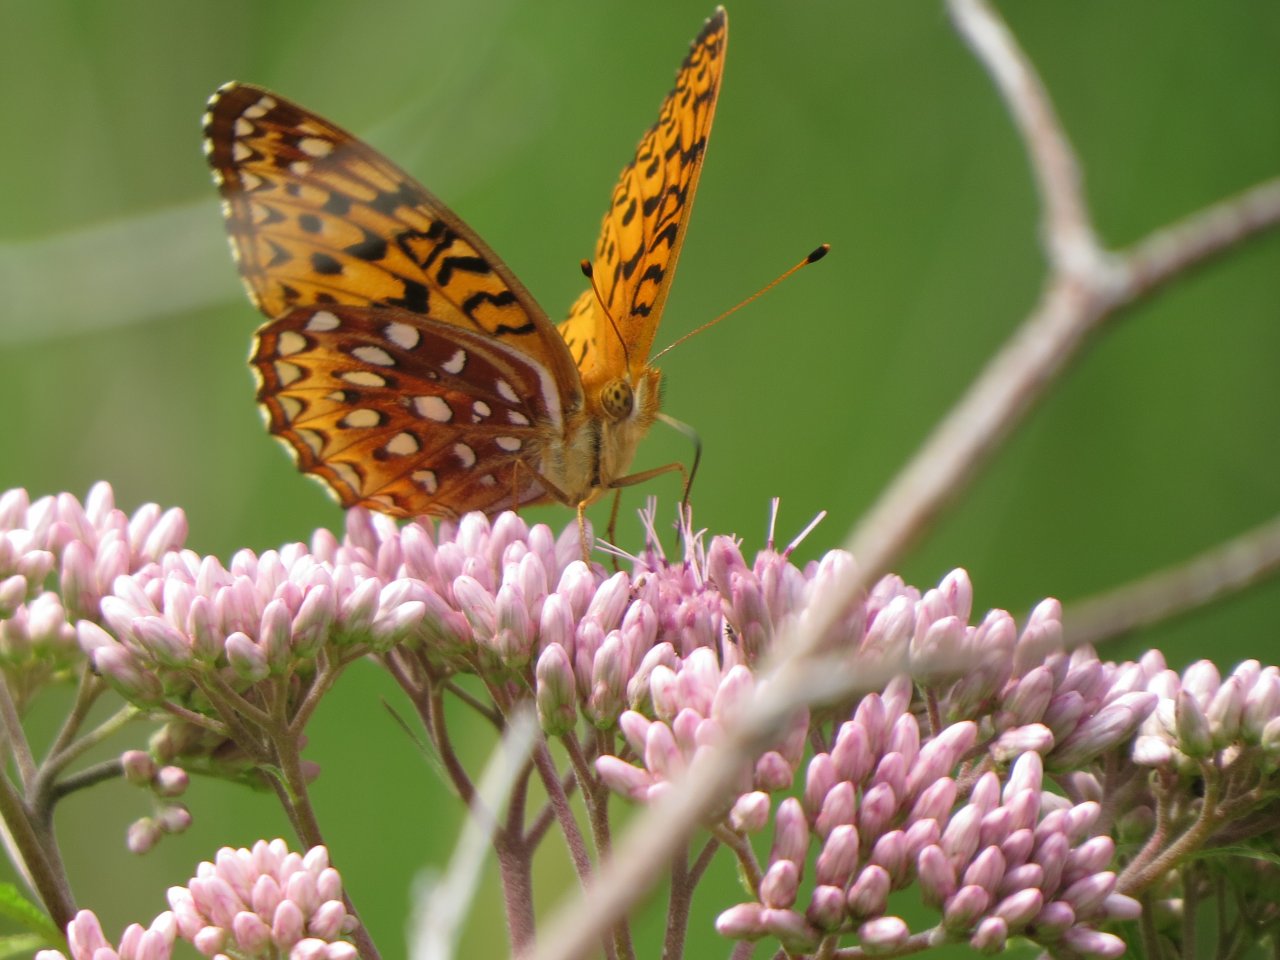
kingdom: Animalia
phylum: Arthropoda
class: Insecta
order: Lepidoptera
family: Nymphalidae
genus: Speyeria
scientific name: Speyeria cybele
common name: Great Spangled Fritillary
